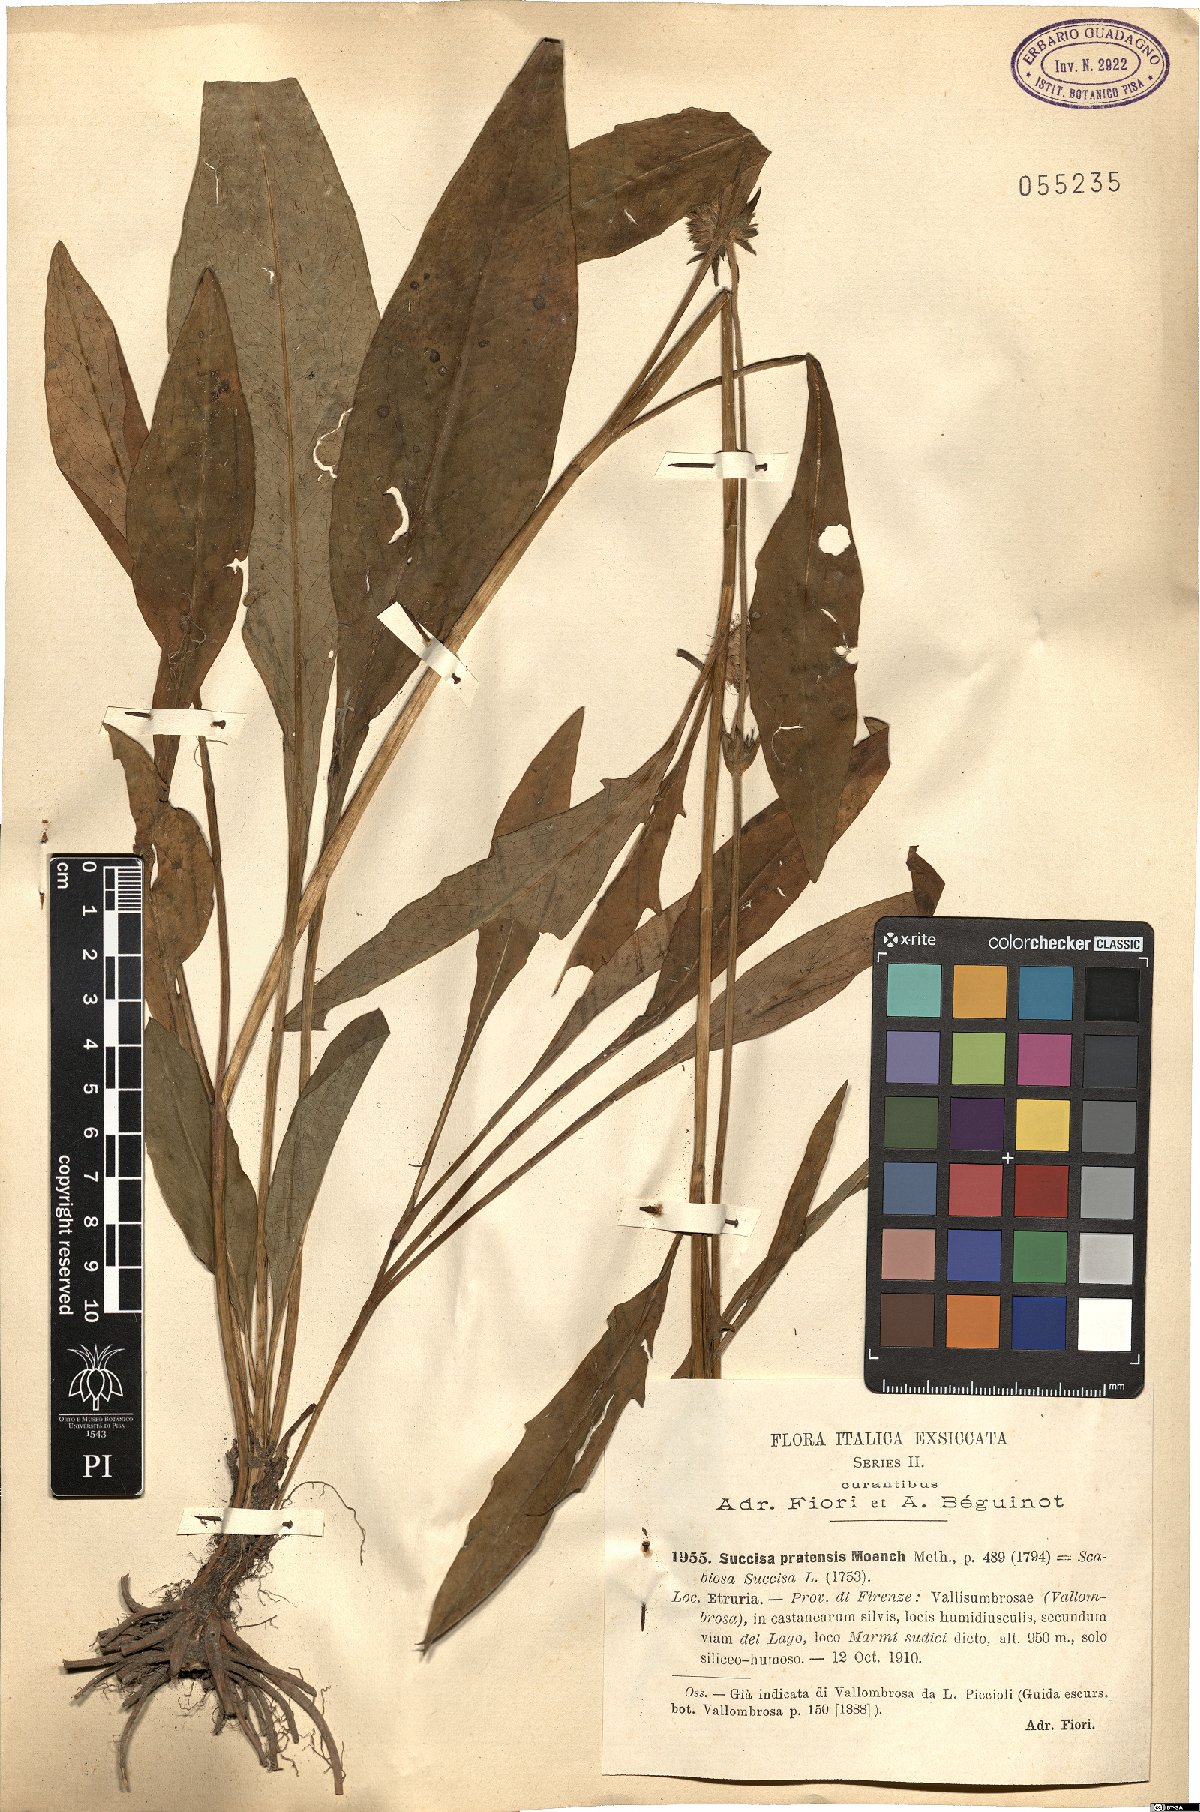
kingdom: Plantae
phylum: Tracheophyta
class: Magnoliopsida
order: Dipsacales
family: Caprifoliaceae
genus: Succisa
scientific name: Succisa pratensis
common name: Devil's-bit
